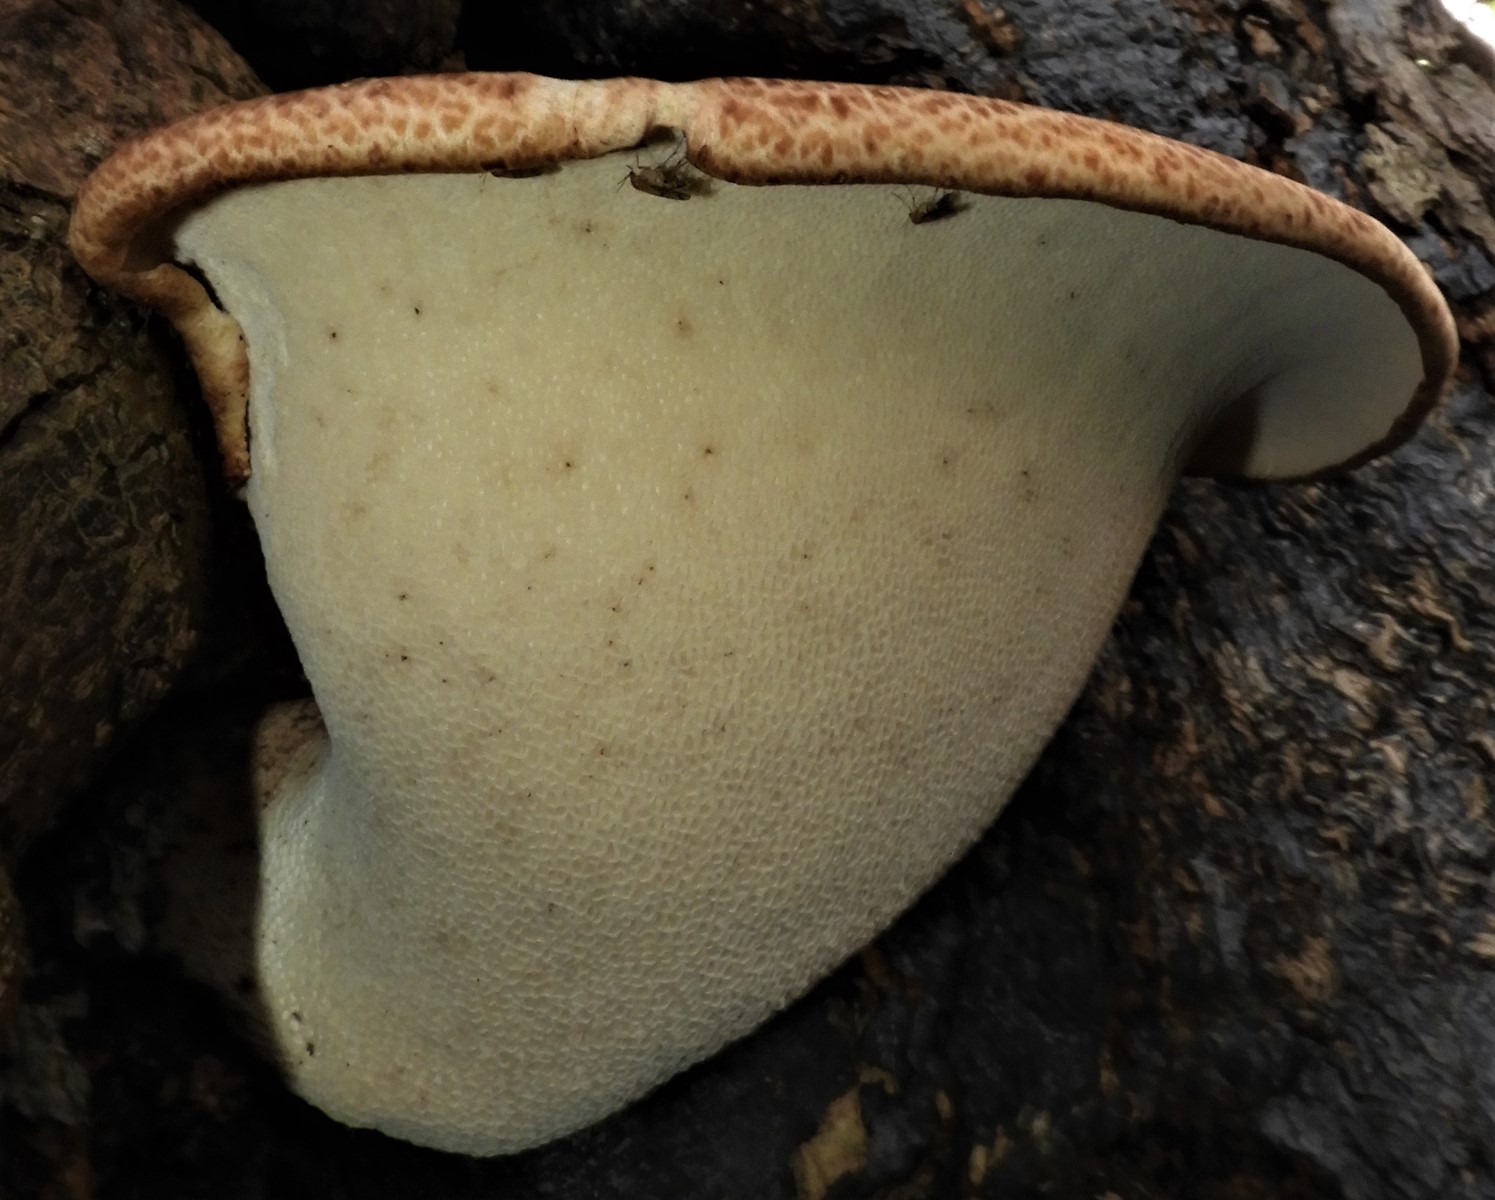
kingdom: Fungi
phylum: Basidiomycota
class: Agaricomycetes
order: Polyporales
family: Polyporaceae
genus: Cerioporus
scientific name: Cerioporus squamosus
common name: skællet stilkporesvamp
